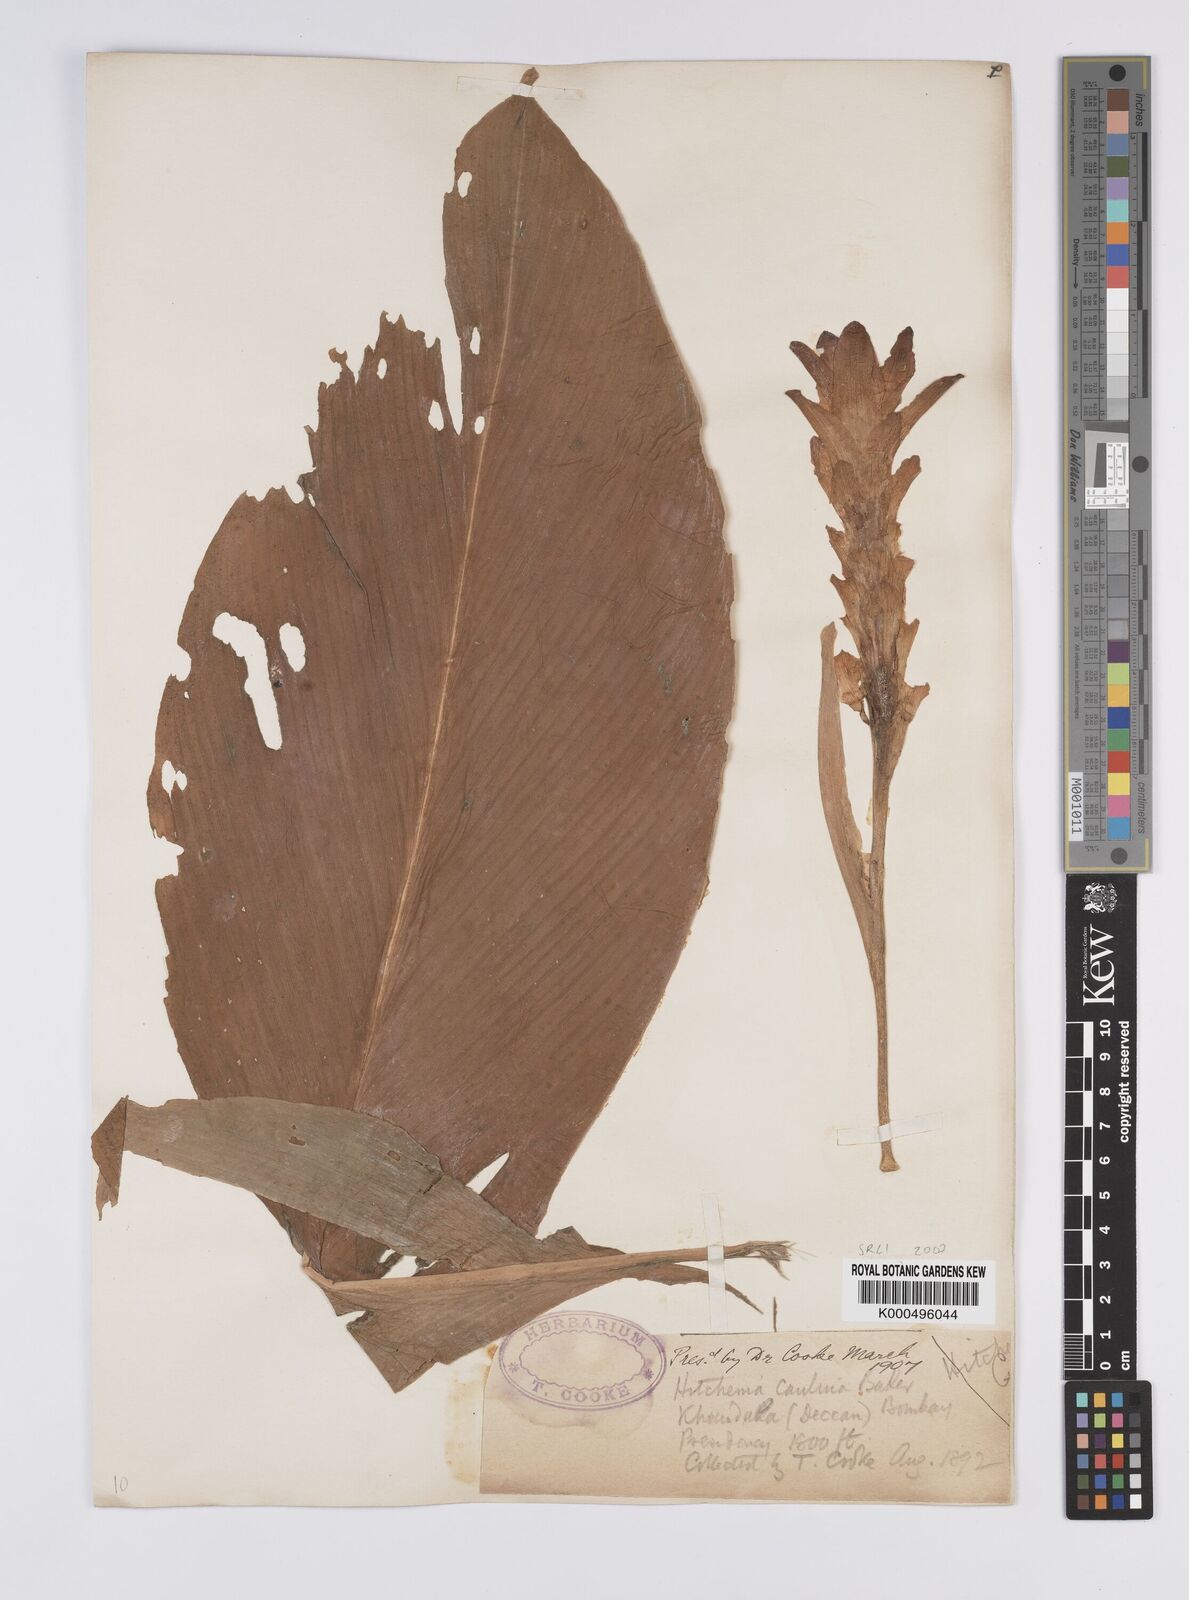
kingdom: Plantae
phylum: Tracheophyta
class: Liliopsida
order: Zingiberales
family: Zingiberaceae
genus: Curcuma
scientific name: Curcuma caulina
